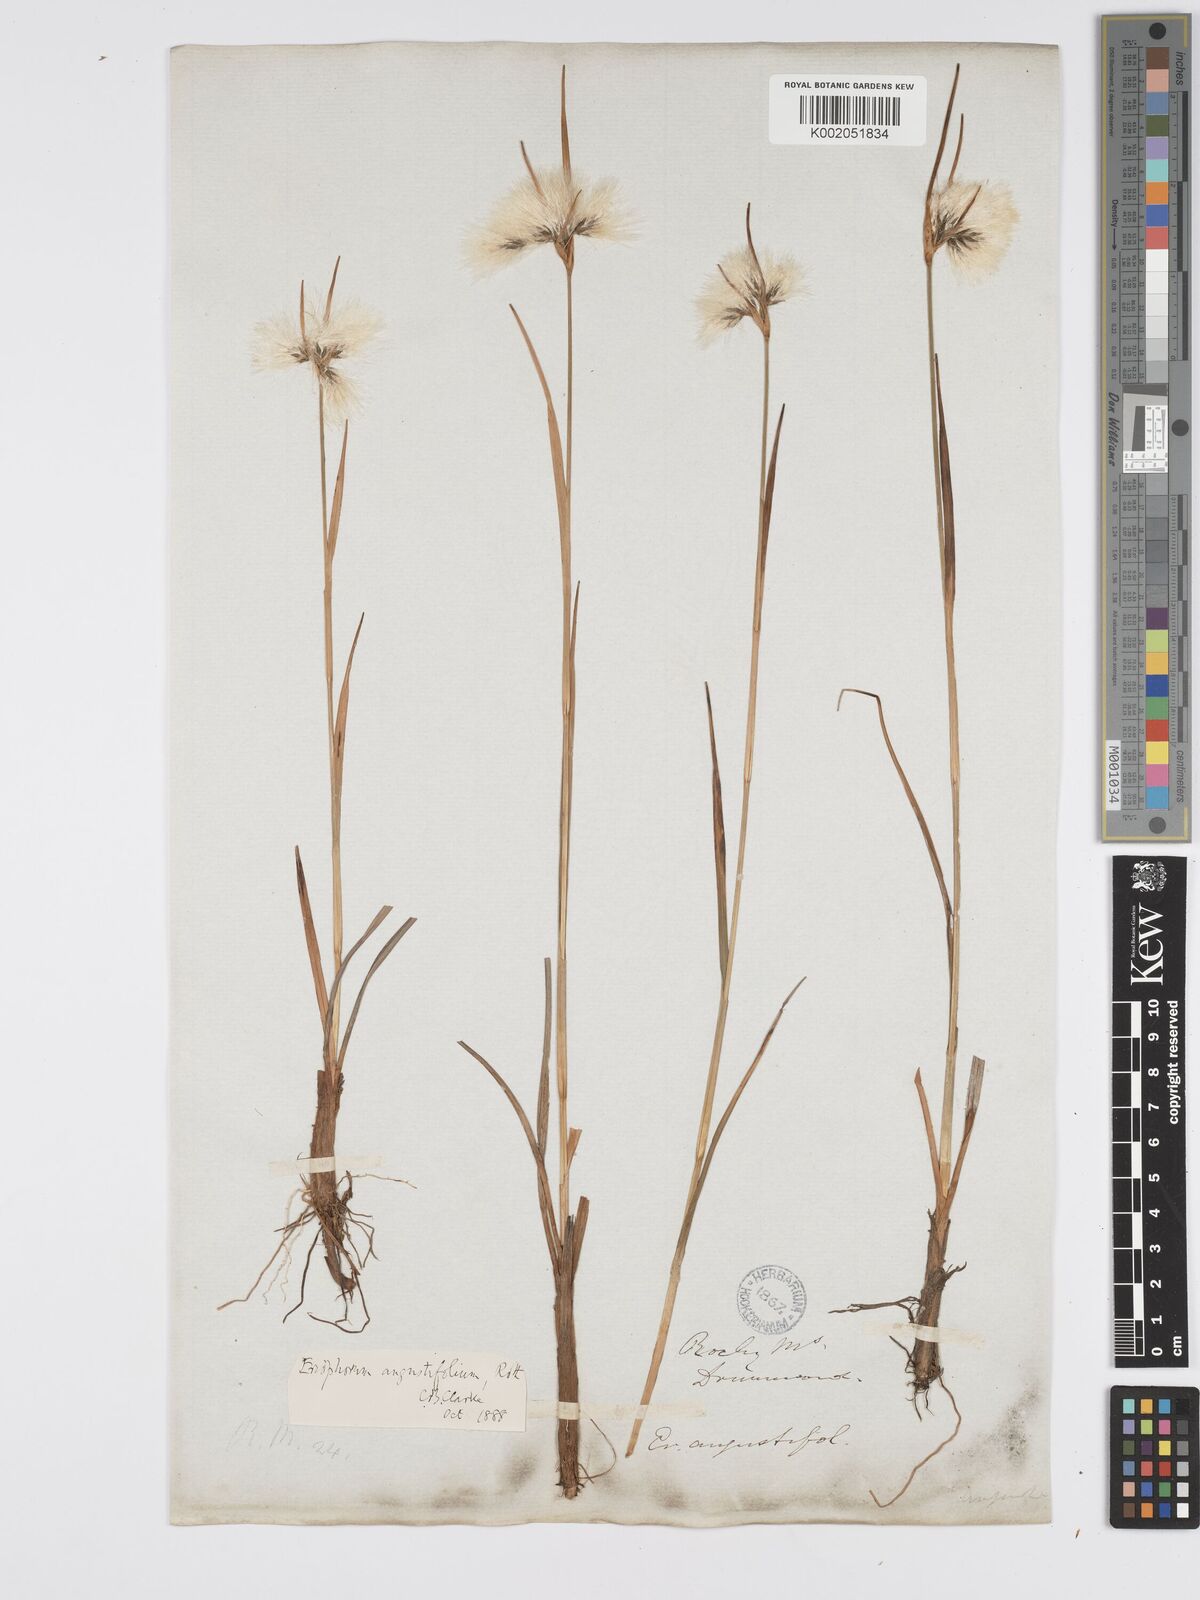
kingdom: Plantae
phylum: Tracheophyta
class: Liliopsida
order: Poales
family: Cyperaceae
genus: Eriophorum
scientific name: Eriophorum angustifolium
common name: Common cottongrass
